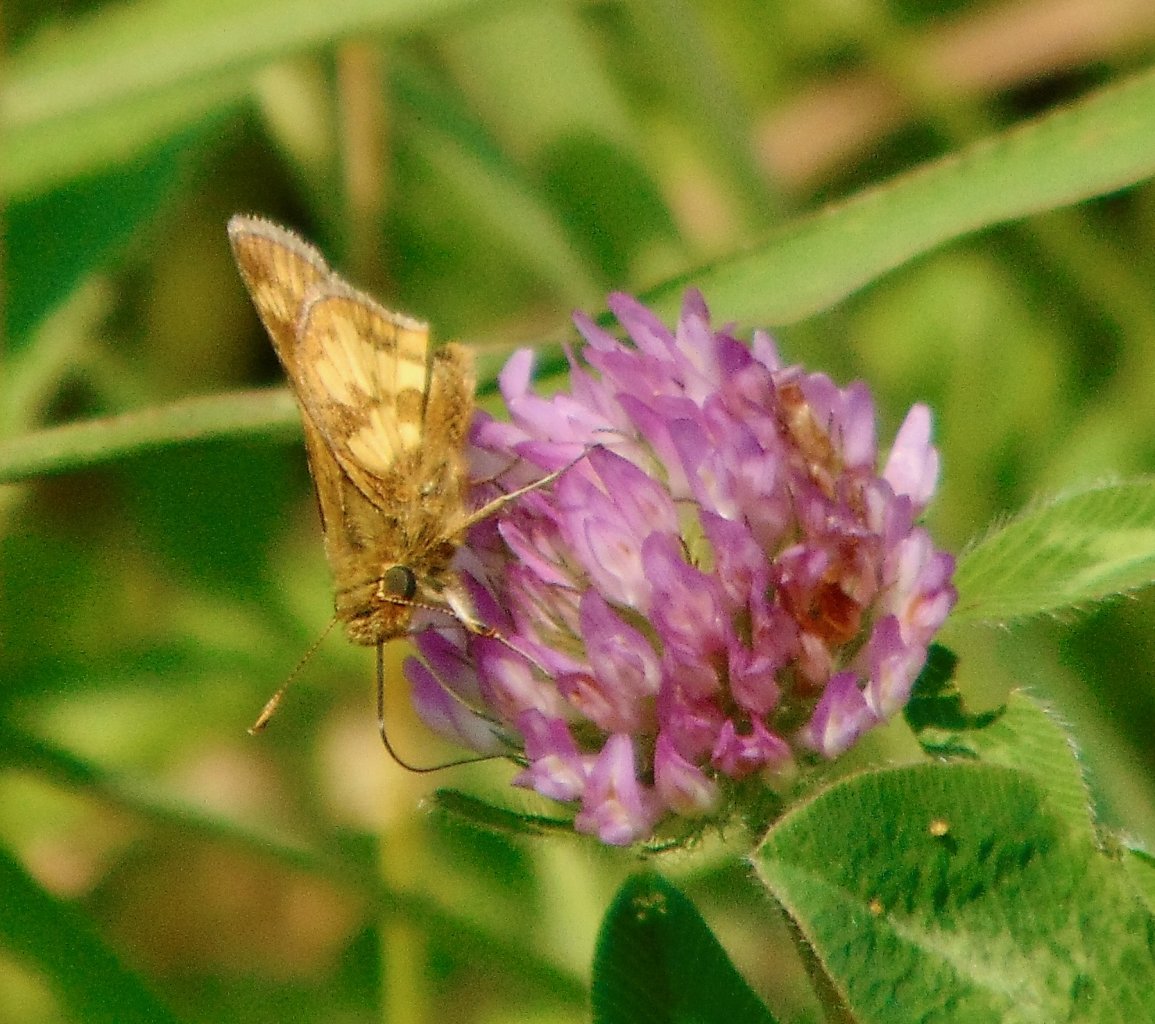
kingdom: Animalia
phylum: Arthropoda
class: Insecta
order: Lepidoptera
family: Hesperiidae
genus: Polites
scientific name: Polites coras
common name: Peck's Skipper
